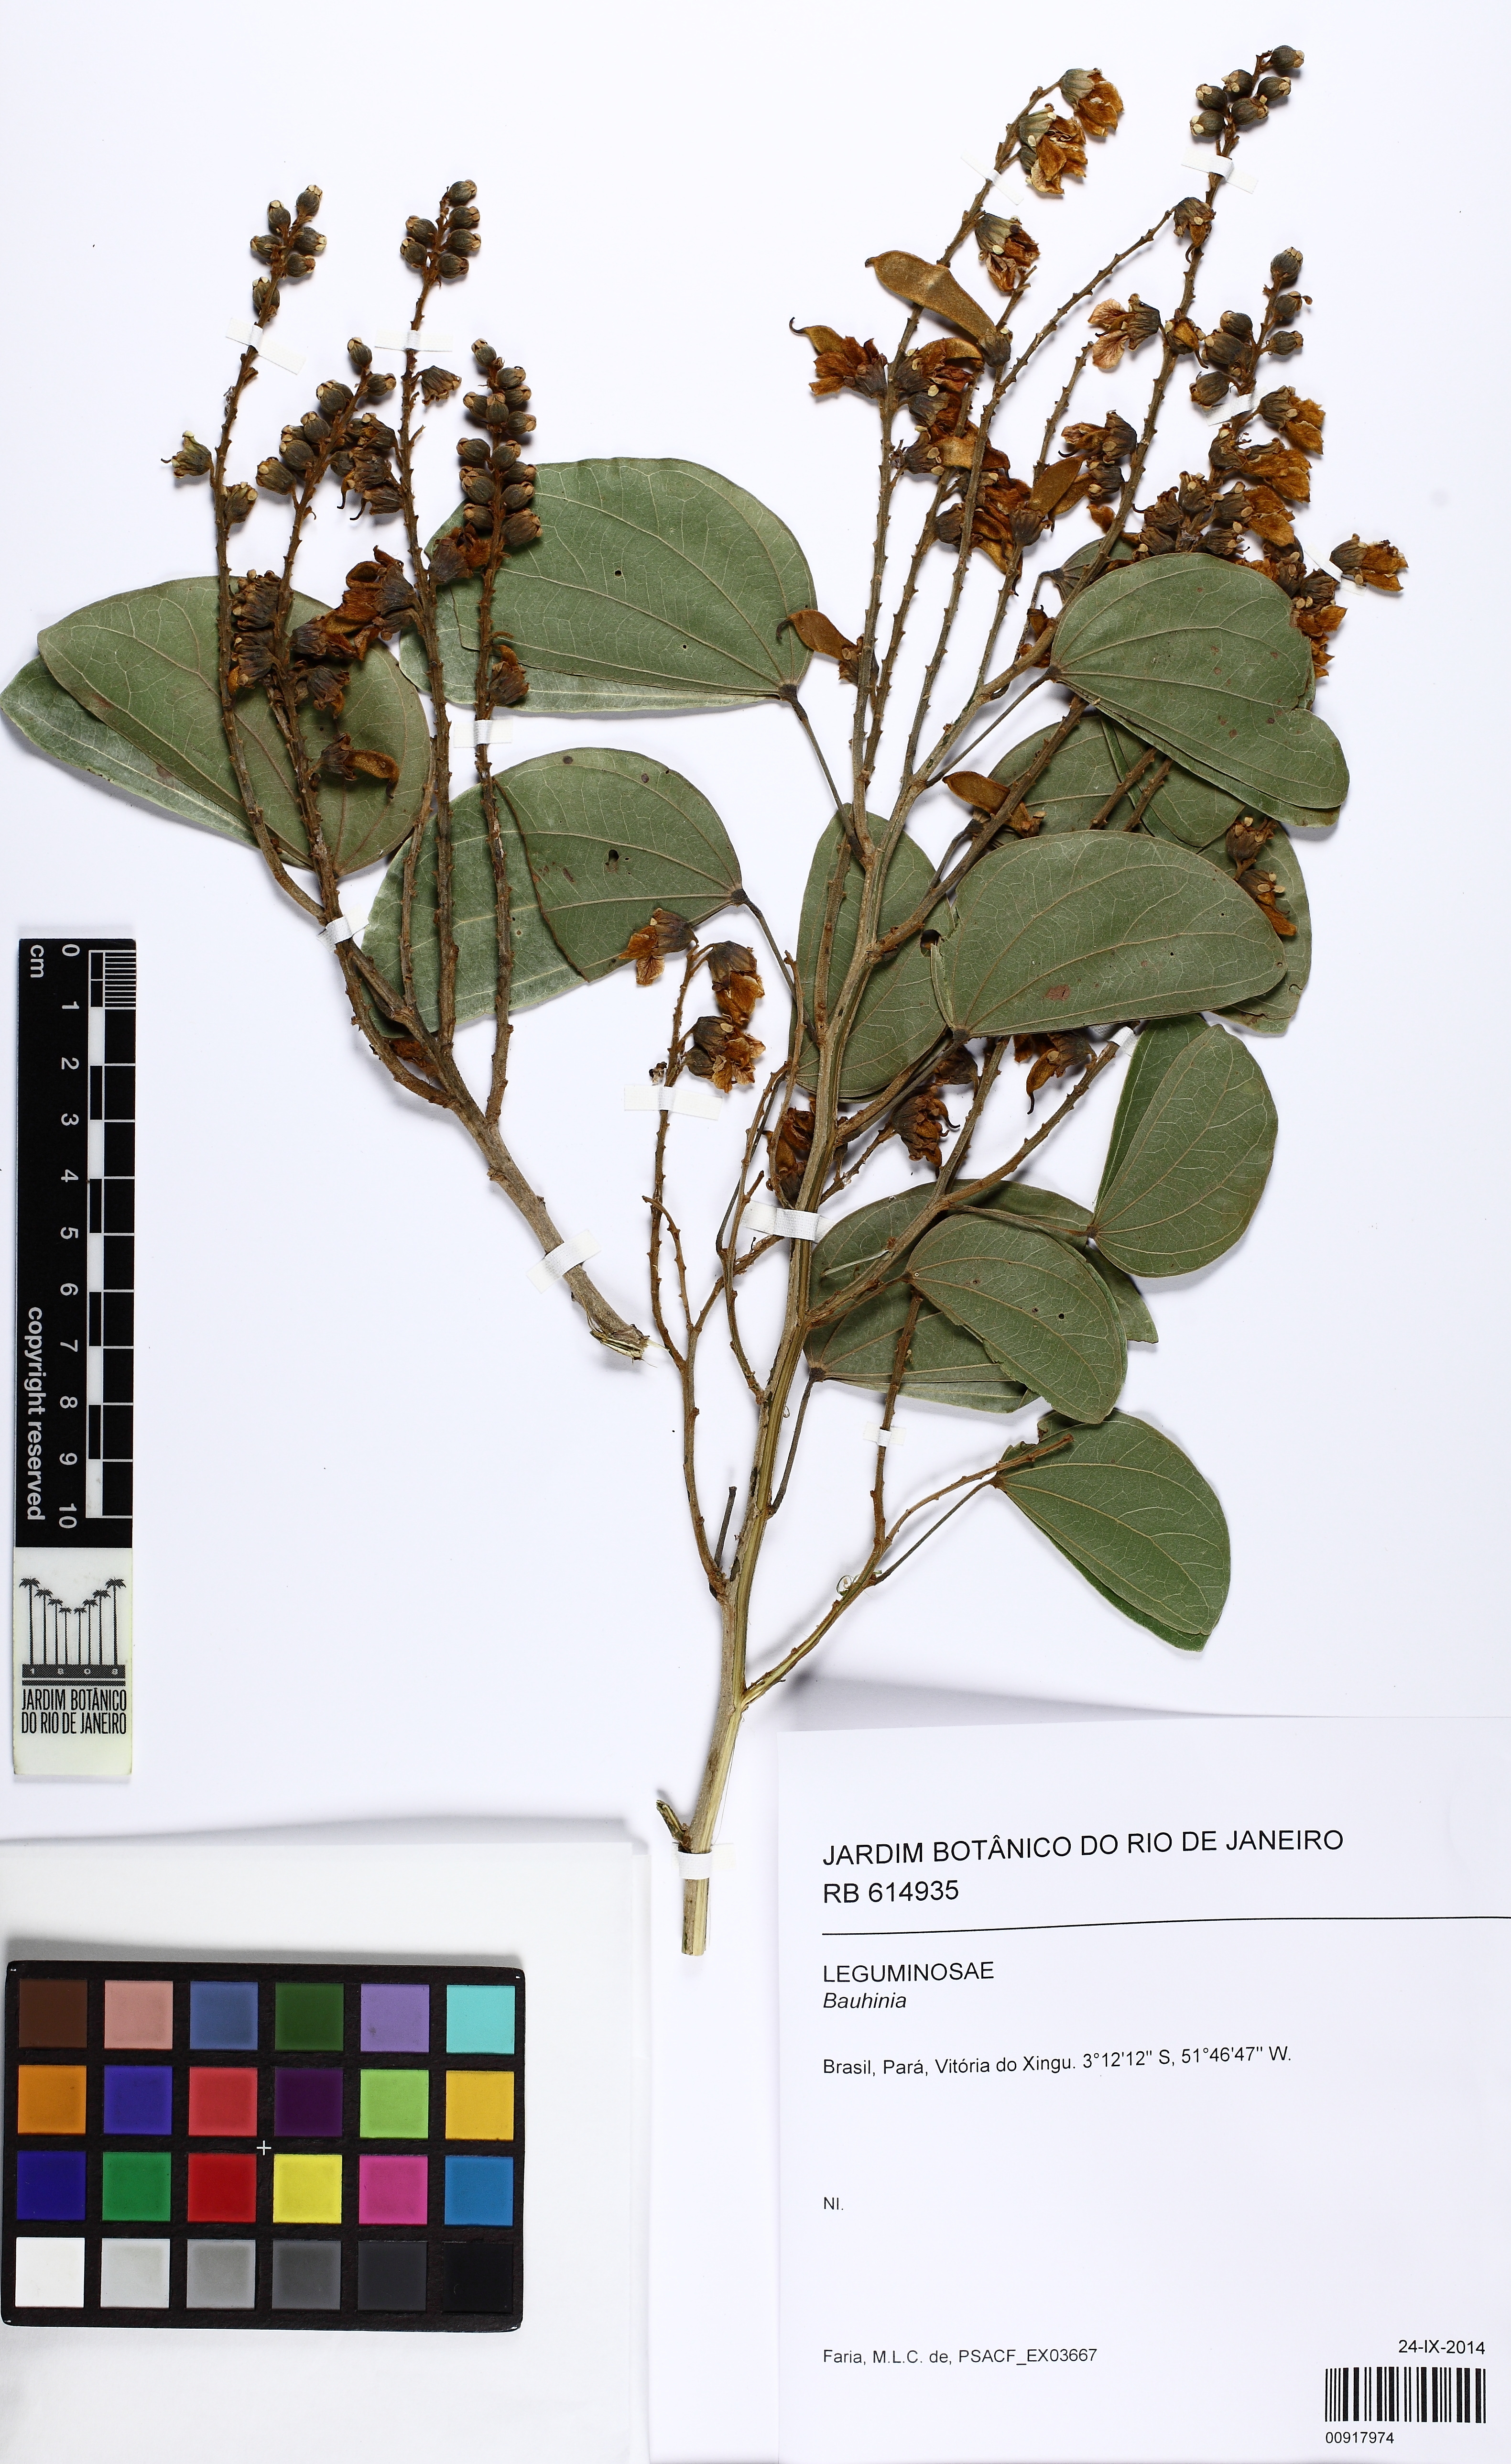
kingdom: Plantae
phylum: Tracheophyta
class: Magnoliopsida
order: Fabales
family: Fabaceae
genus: Schnella
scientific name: Schnella outimouta
